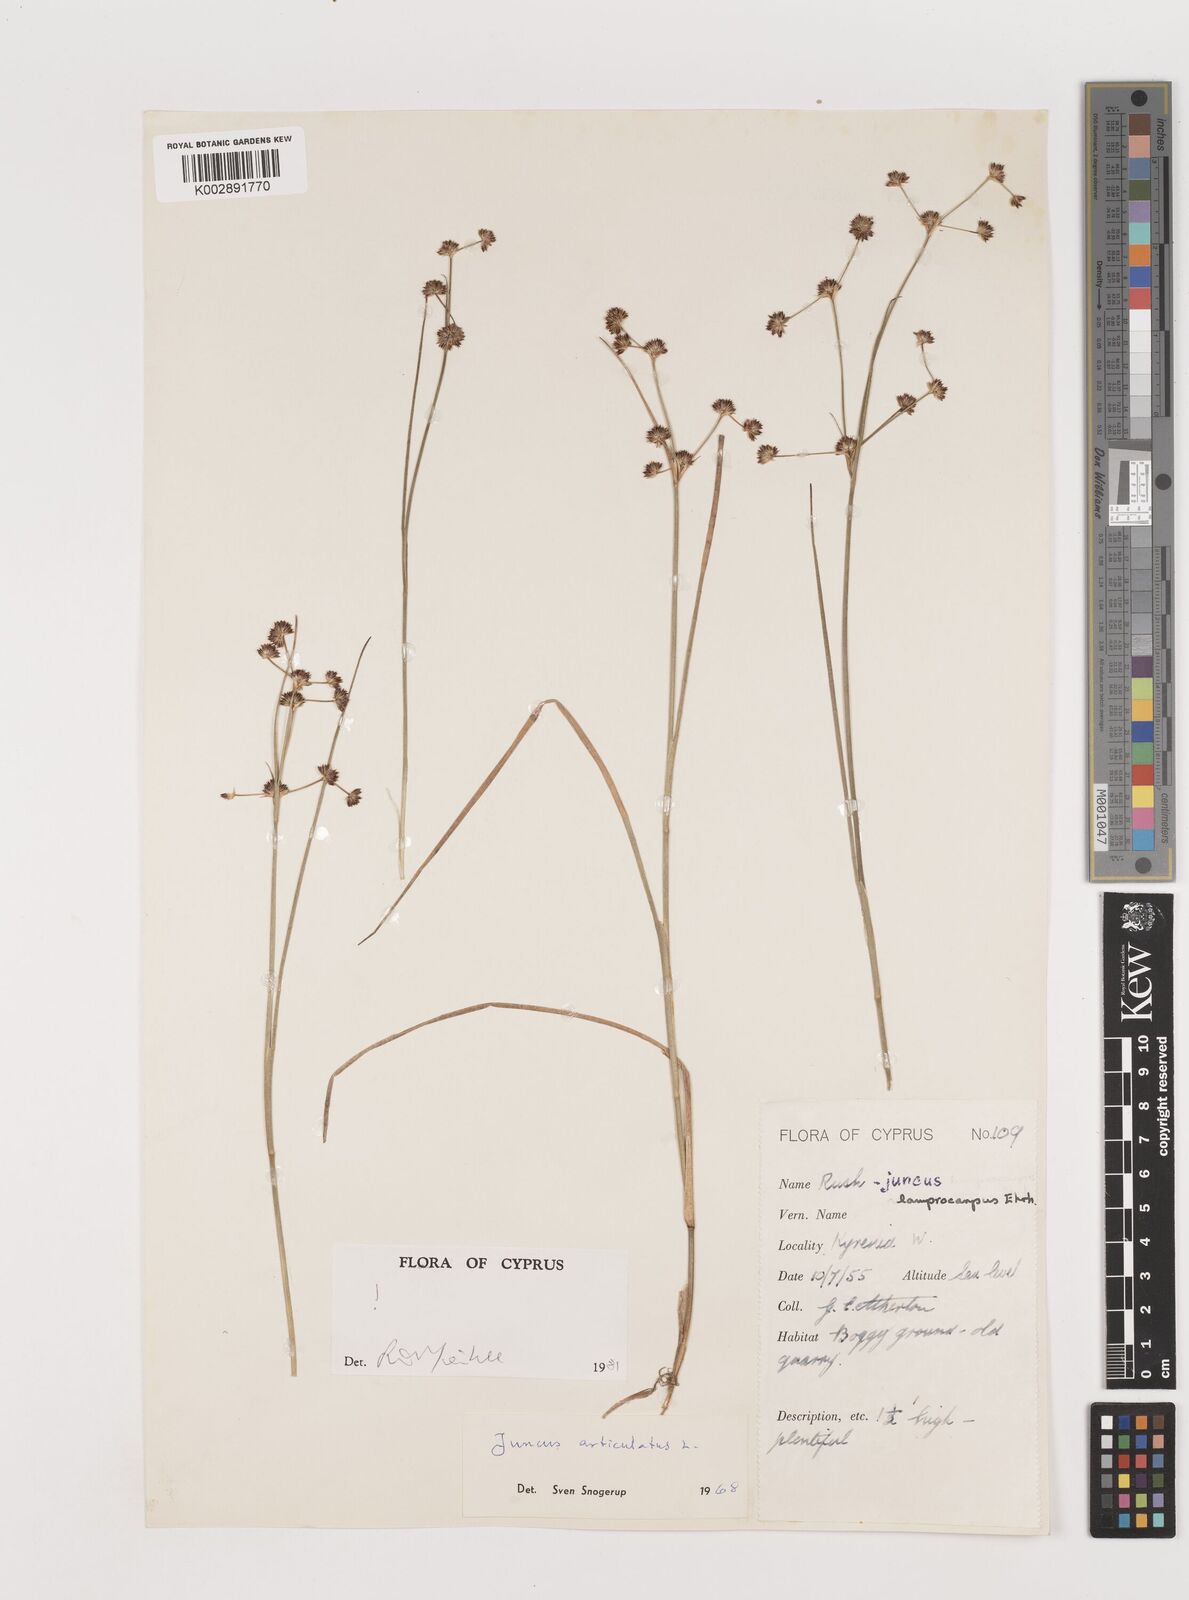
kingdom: Plantae
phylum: Tracheophyta
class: Liliopsida
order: Poales
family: Juncaceae
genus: Juncus
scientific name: Juncus articulatus
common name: Jointed rush
